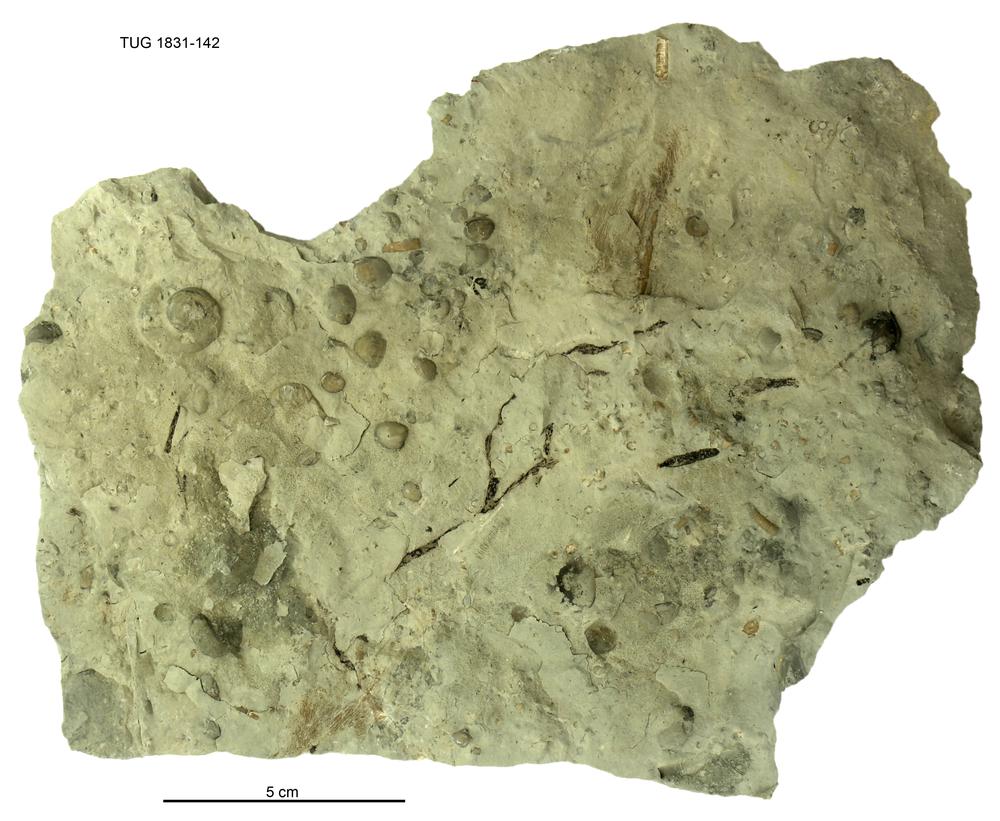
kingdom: Animalia
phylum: Brachiopoda
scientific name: Brachiopoda
